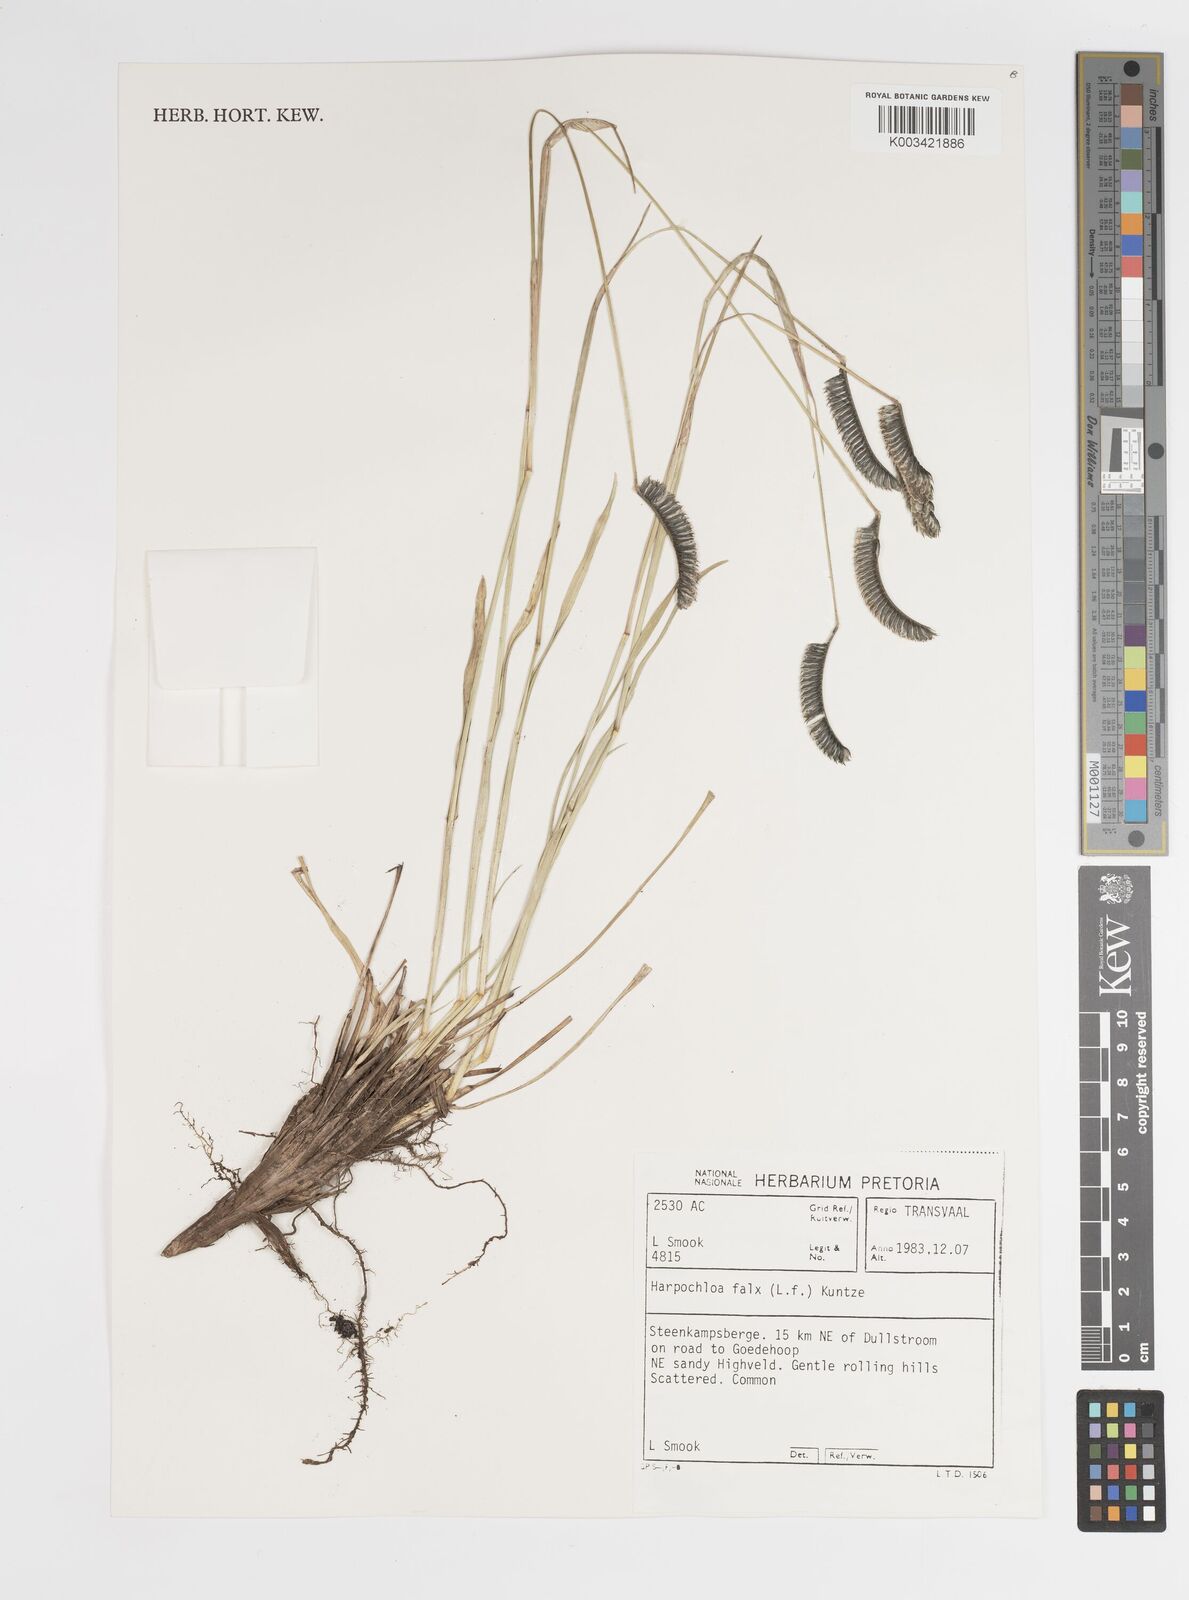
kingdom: Plantae
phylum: Tracheophyta
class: Liliopsida
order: Poales
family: Poaceae
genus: Harpochloa
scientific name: Harpochloa falx
